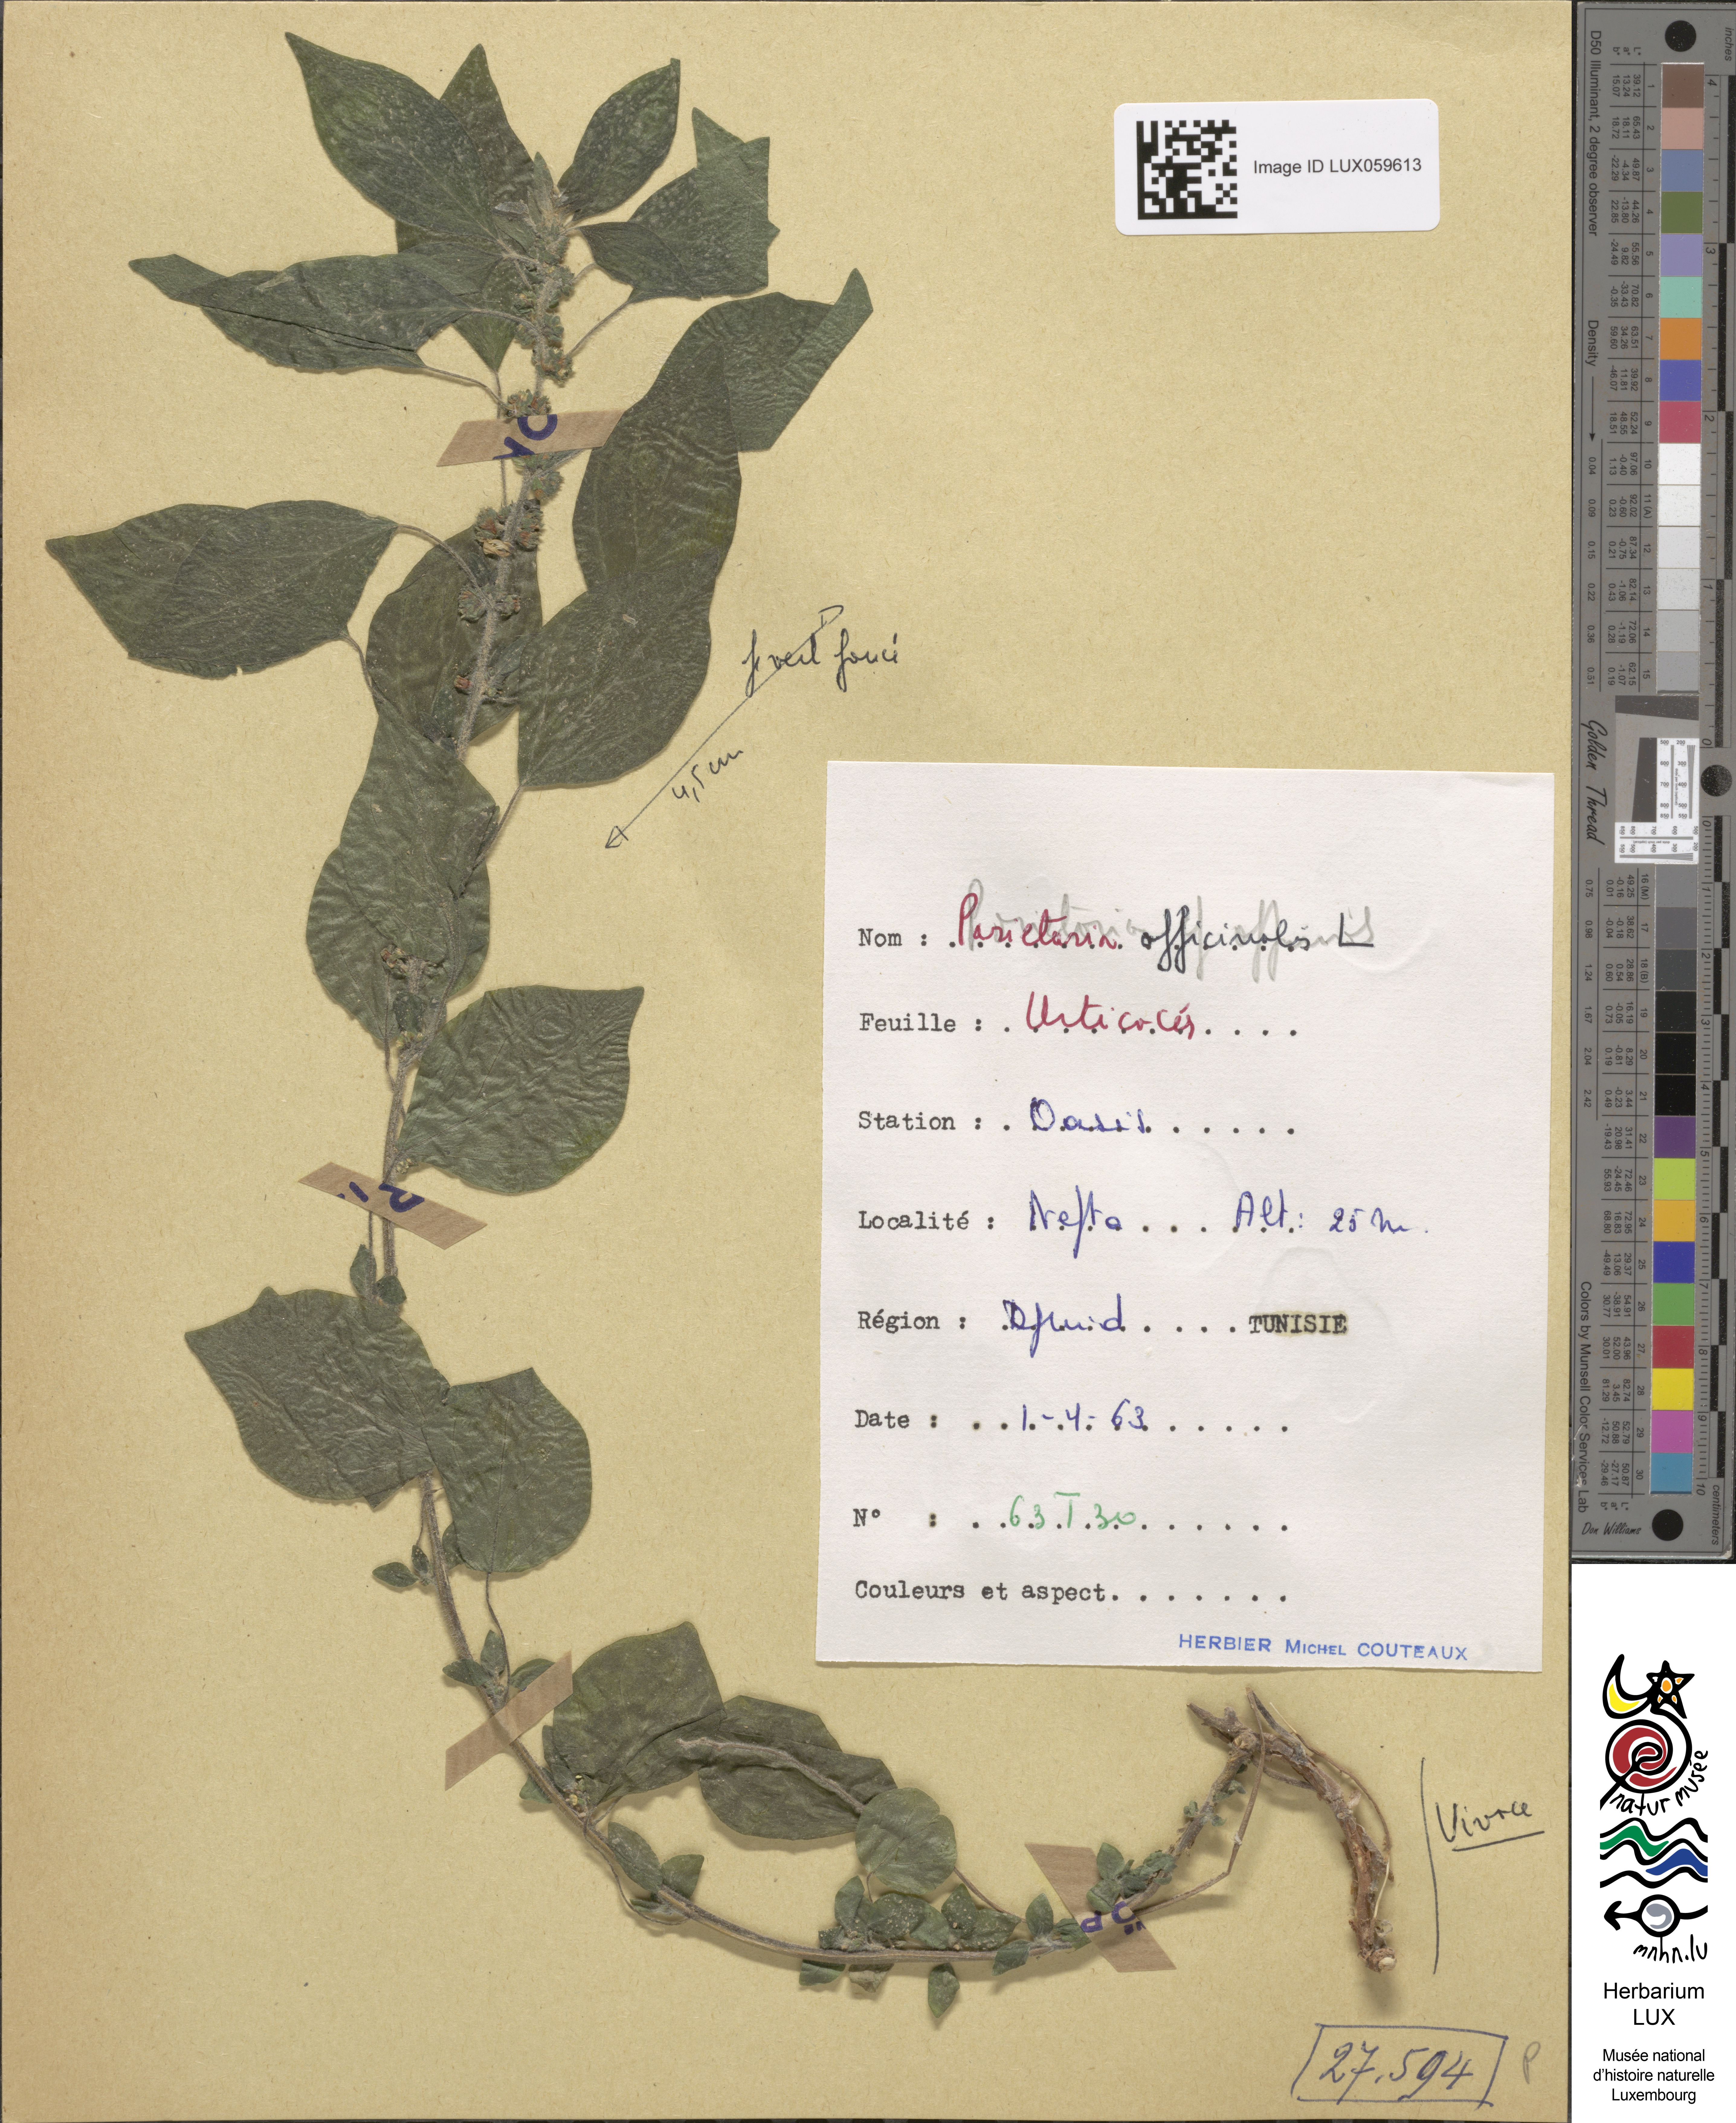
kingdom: Plantae
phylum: Tracheophyta
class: Magnoliopsida
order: Rosales
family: Urticaceae
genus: Parietaria
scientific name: Parietaria officinalis
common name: Eastern pellitory-of-the-wall
